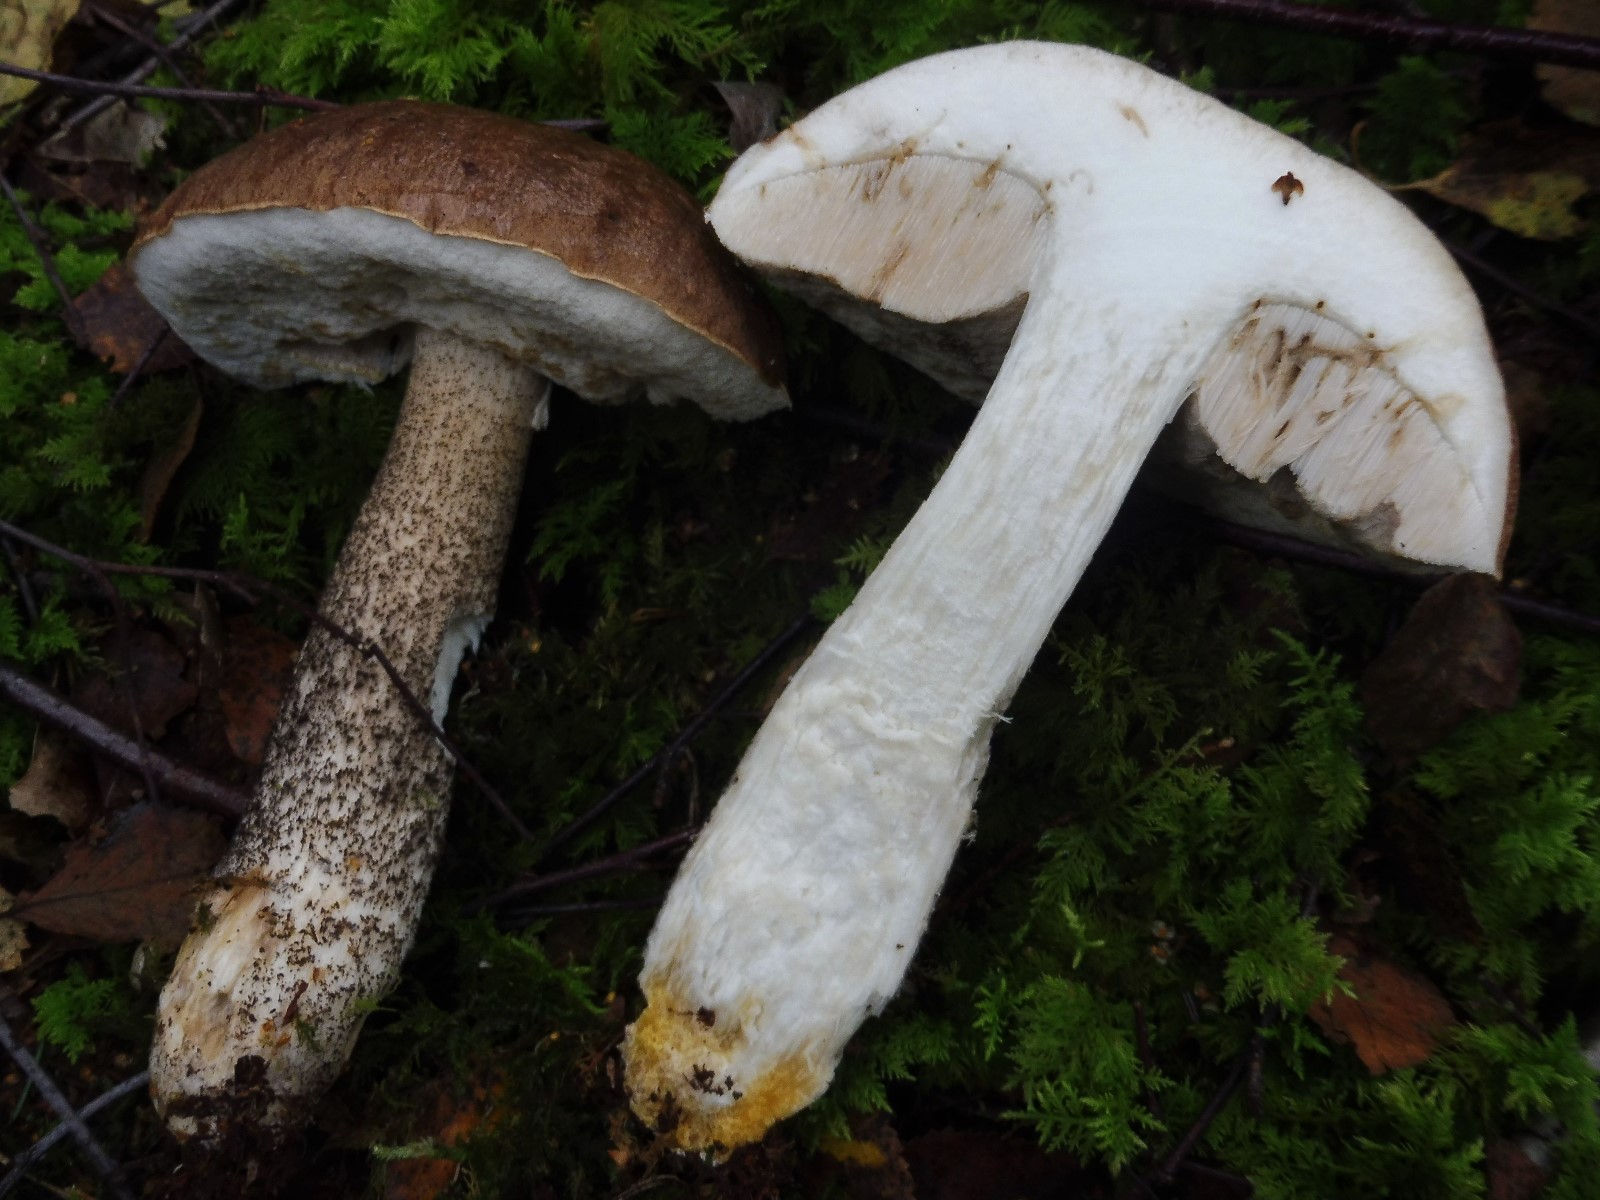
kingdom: Fungi
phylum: Basidiomycota
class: Agaricomycetes
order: Boletales
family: Boletaceae
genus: Leccinum
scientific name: Leccinum scabrum
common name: brun skælrørhat
